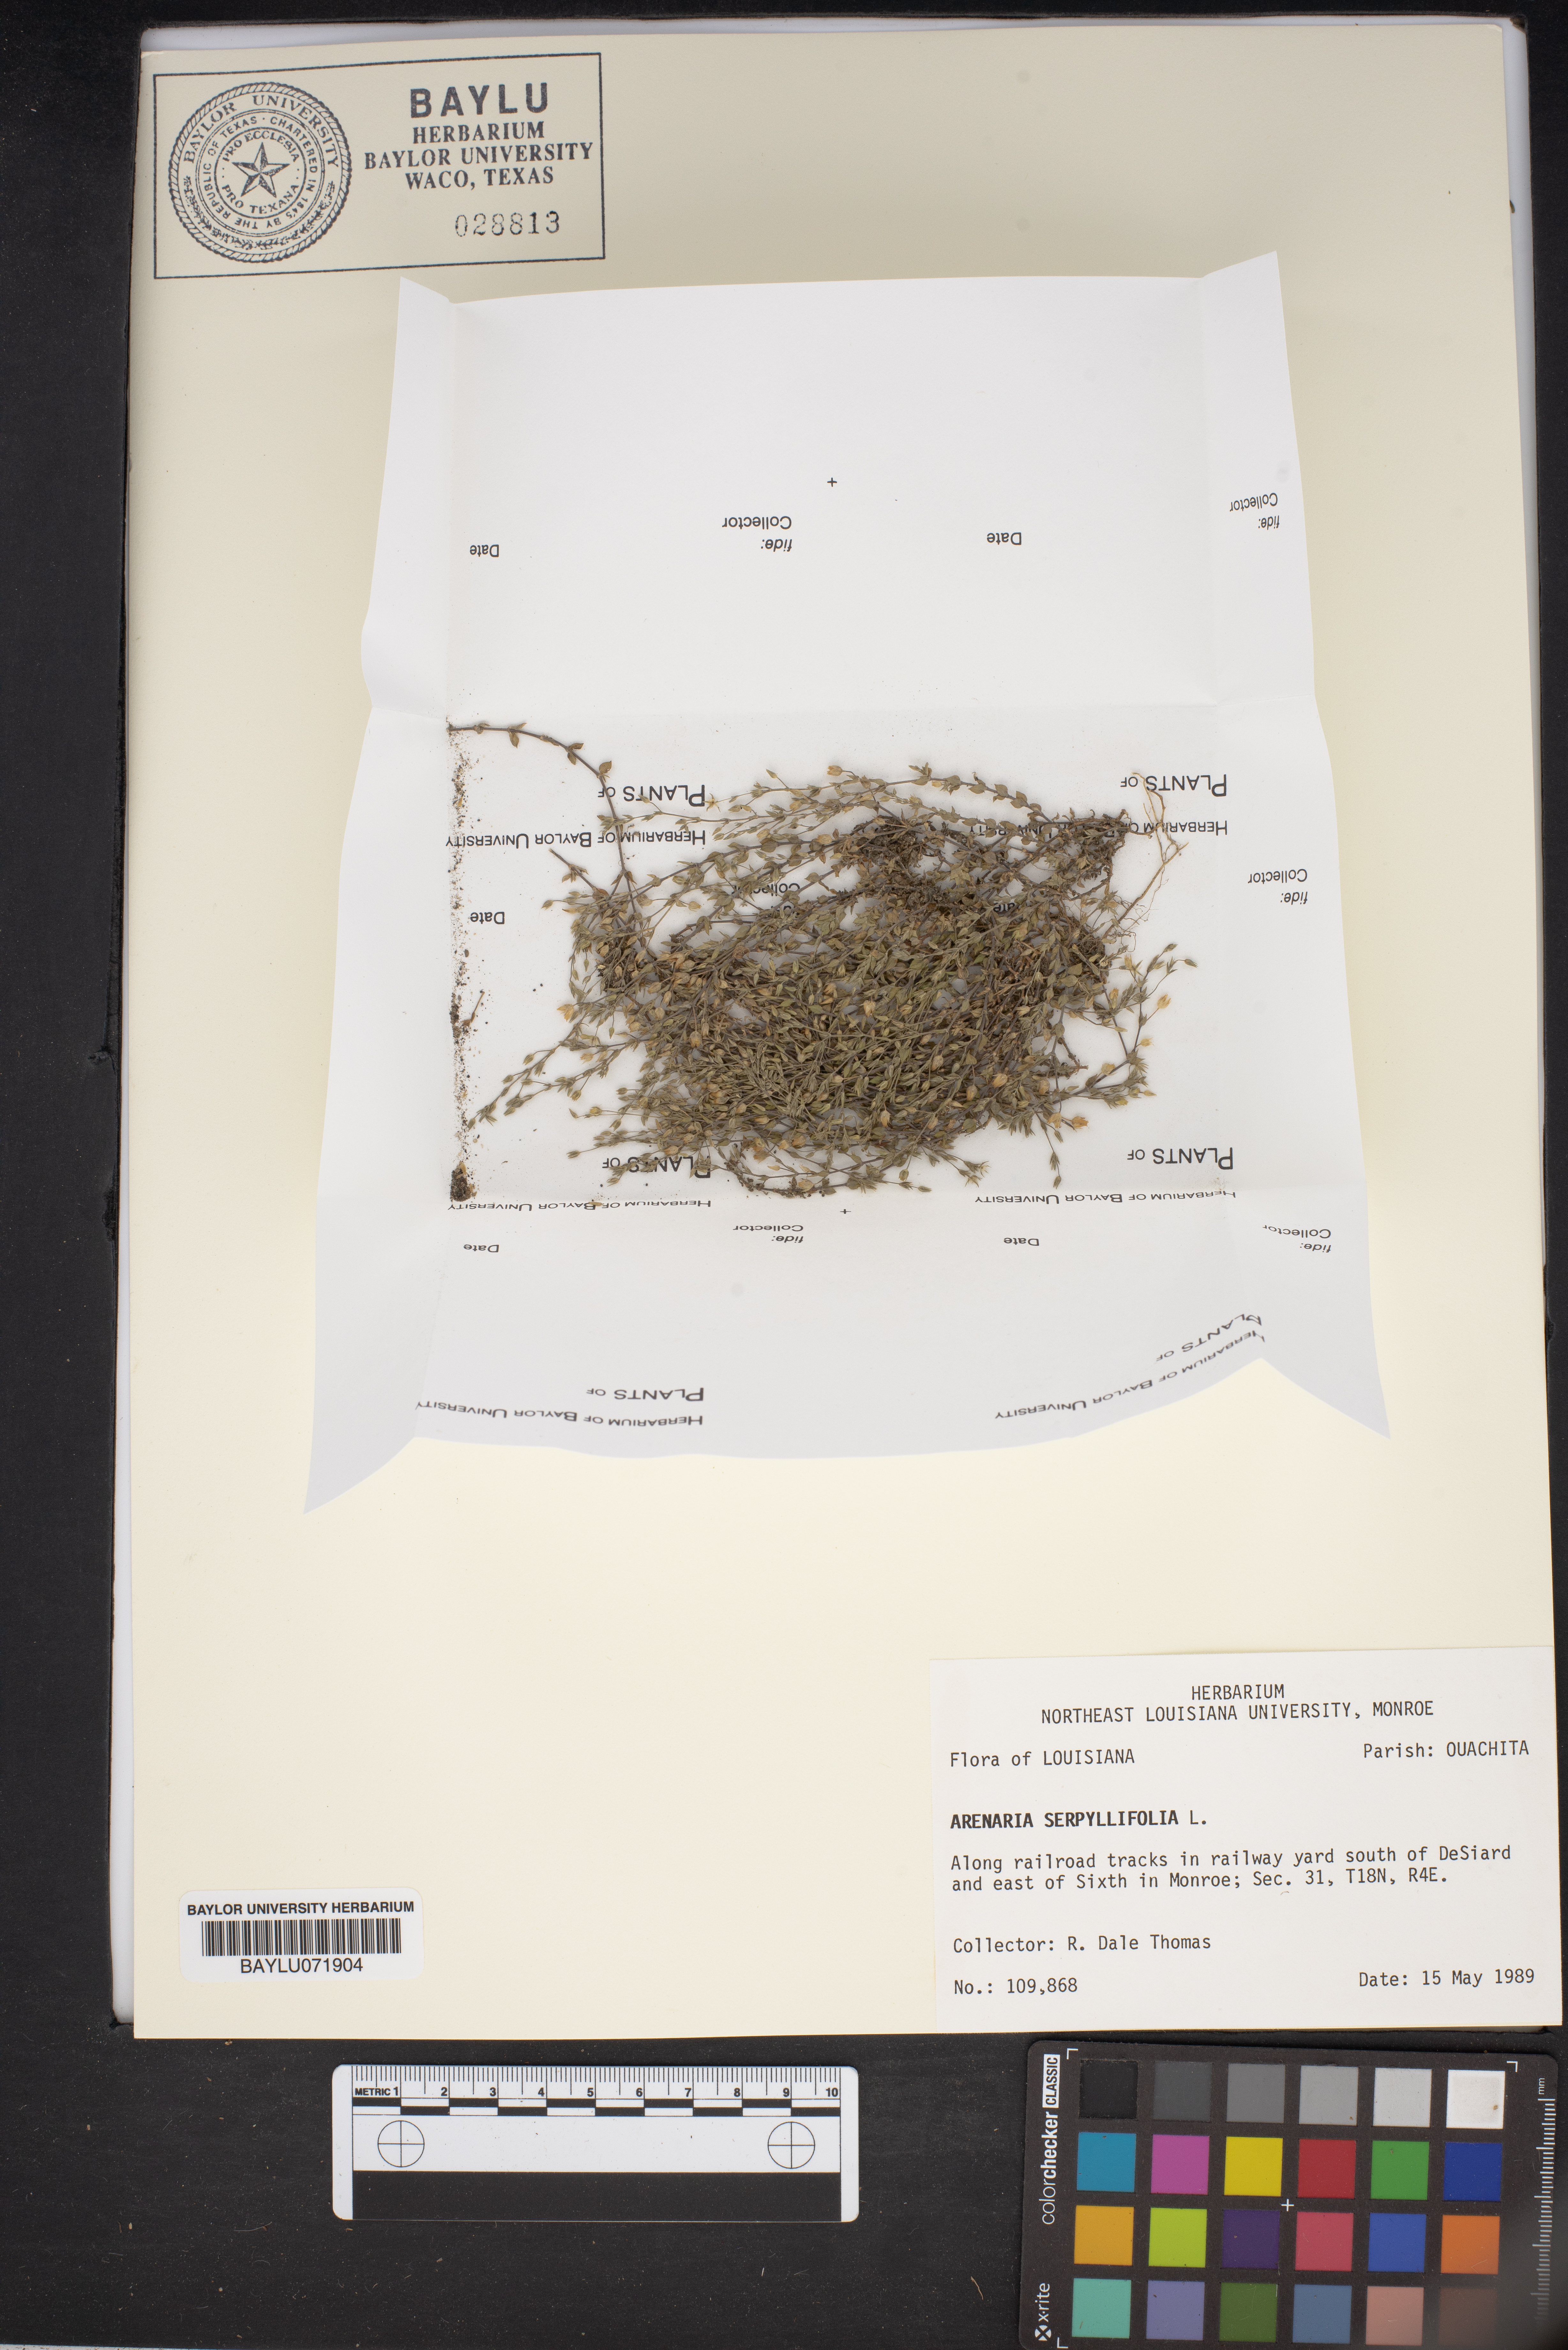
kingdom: Plantae
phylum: Tracheophyta
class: Magnoliopsida
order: Caryophyllales
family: Caryophyllaceae
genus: Arenaria
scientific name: Arenaria serpyllifolia
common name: Thyme-leaved sandwort
